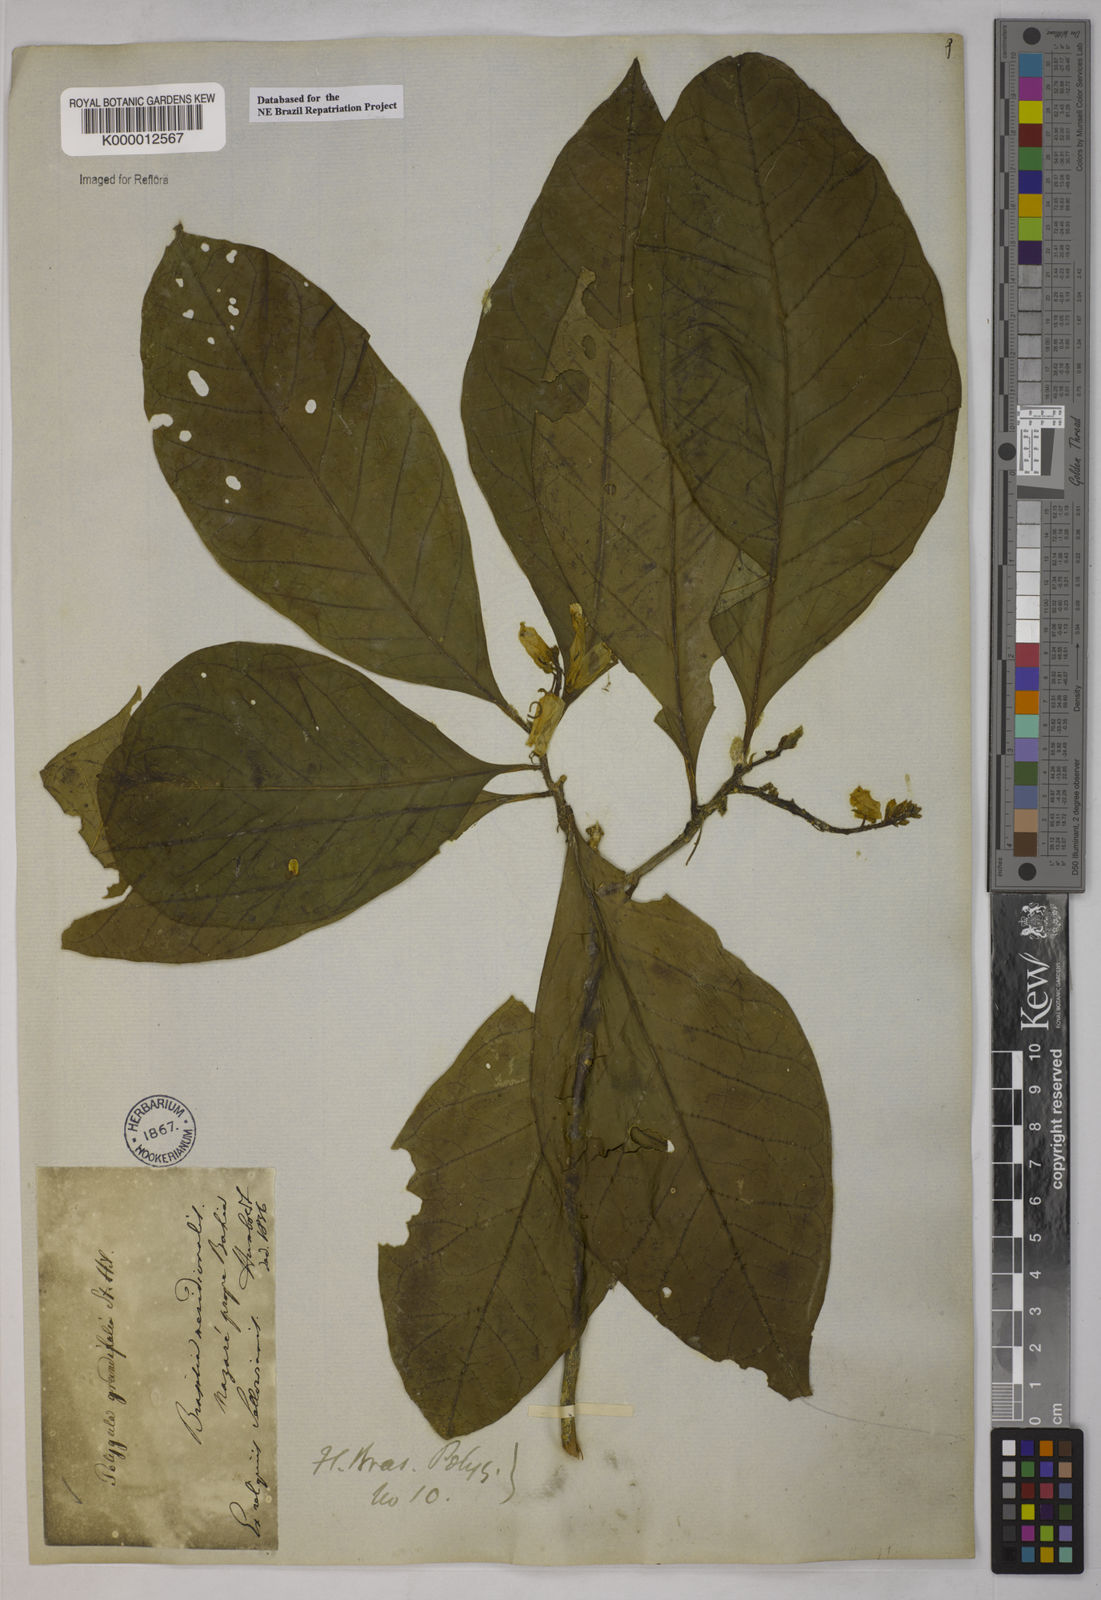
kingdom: Plantae
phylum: Tracheophyta
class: Magnoliopsida
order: Fabales
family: Polygalaceae
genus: Caamembeca
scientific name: Caamembeca grandifolia
